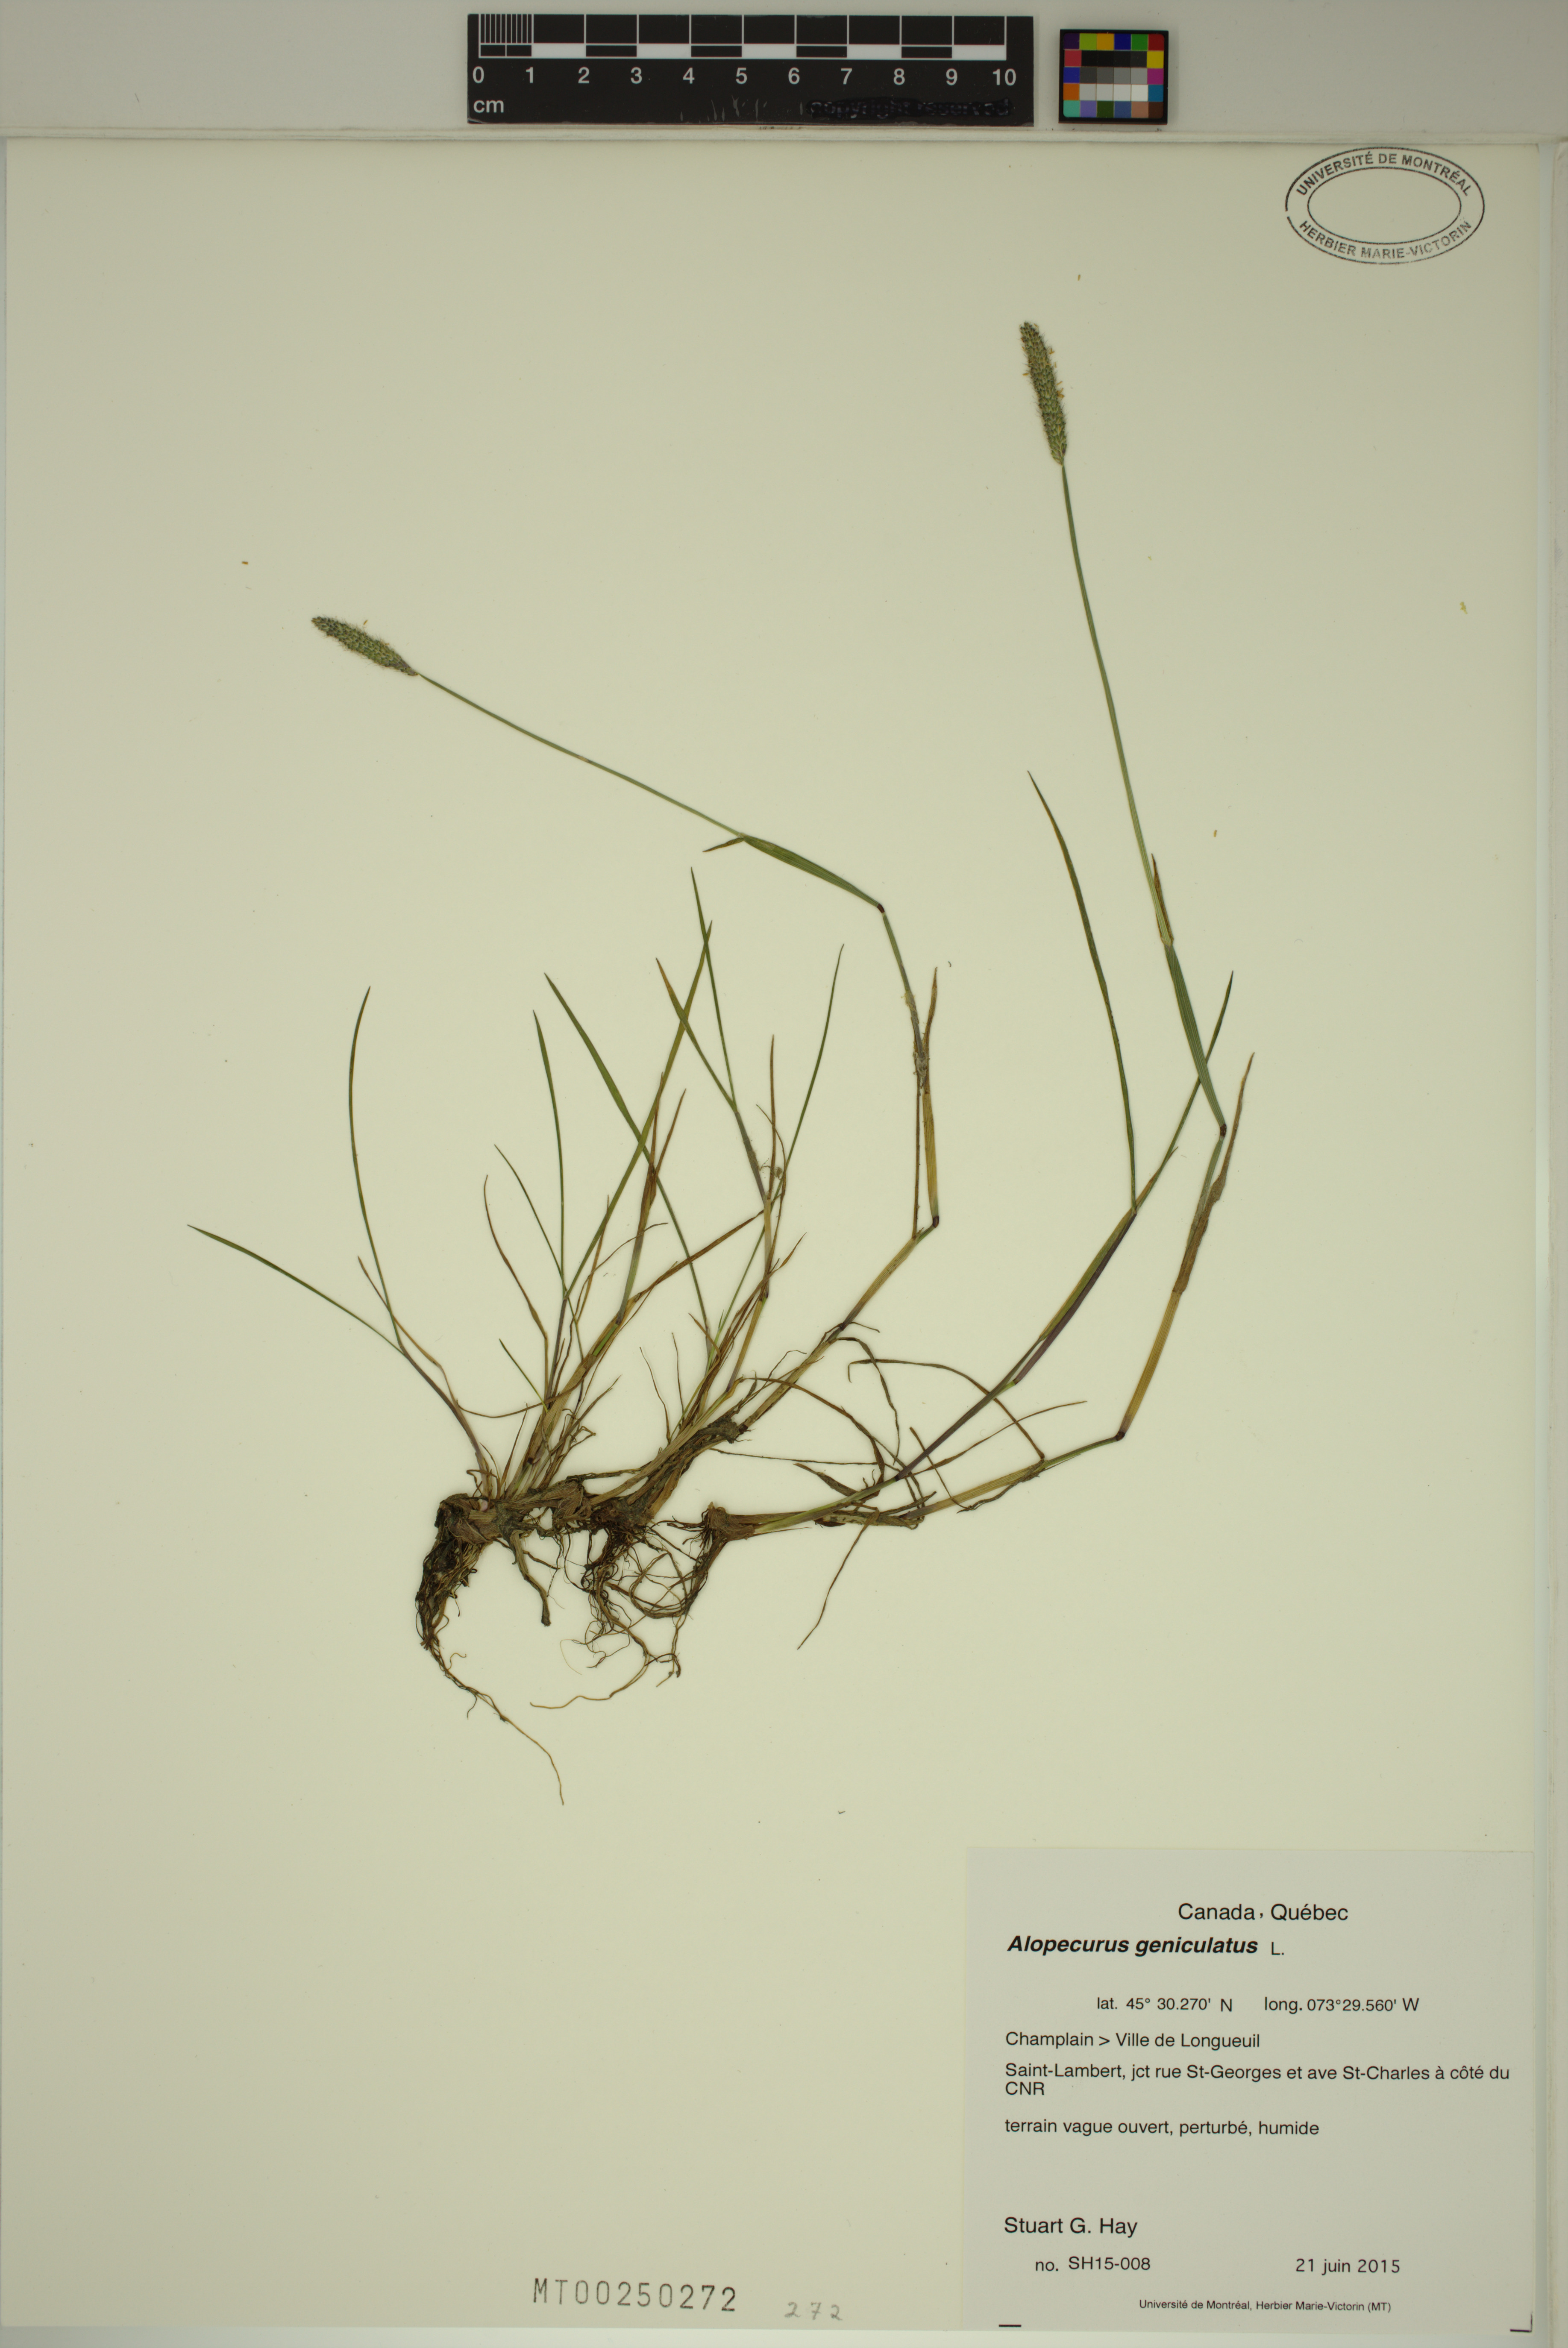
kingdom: Plantae
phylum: Tracheophyta
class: Liliopsida
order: Poales
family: Poaceae
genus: Alopecurus
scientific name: Alopecurus geniculatus
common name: Water foxtail
